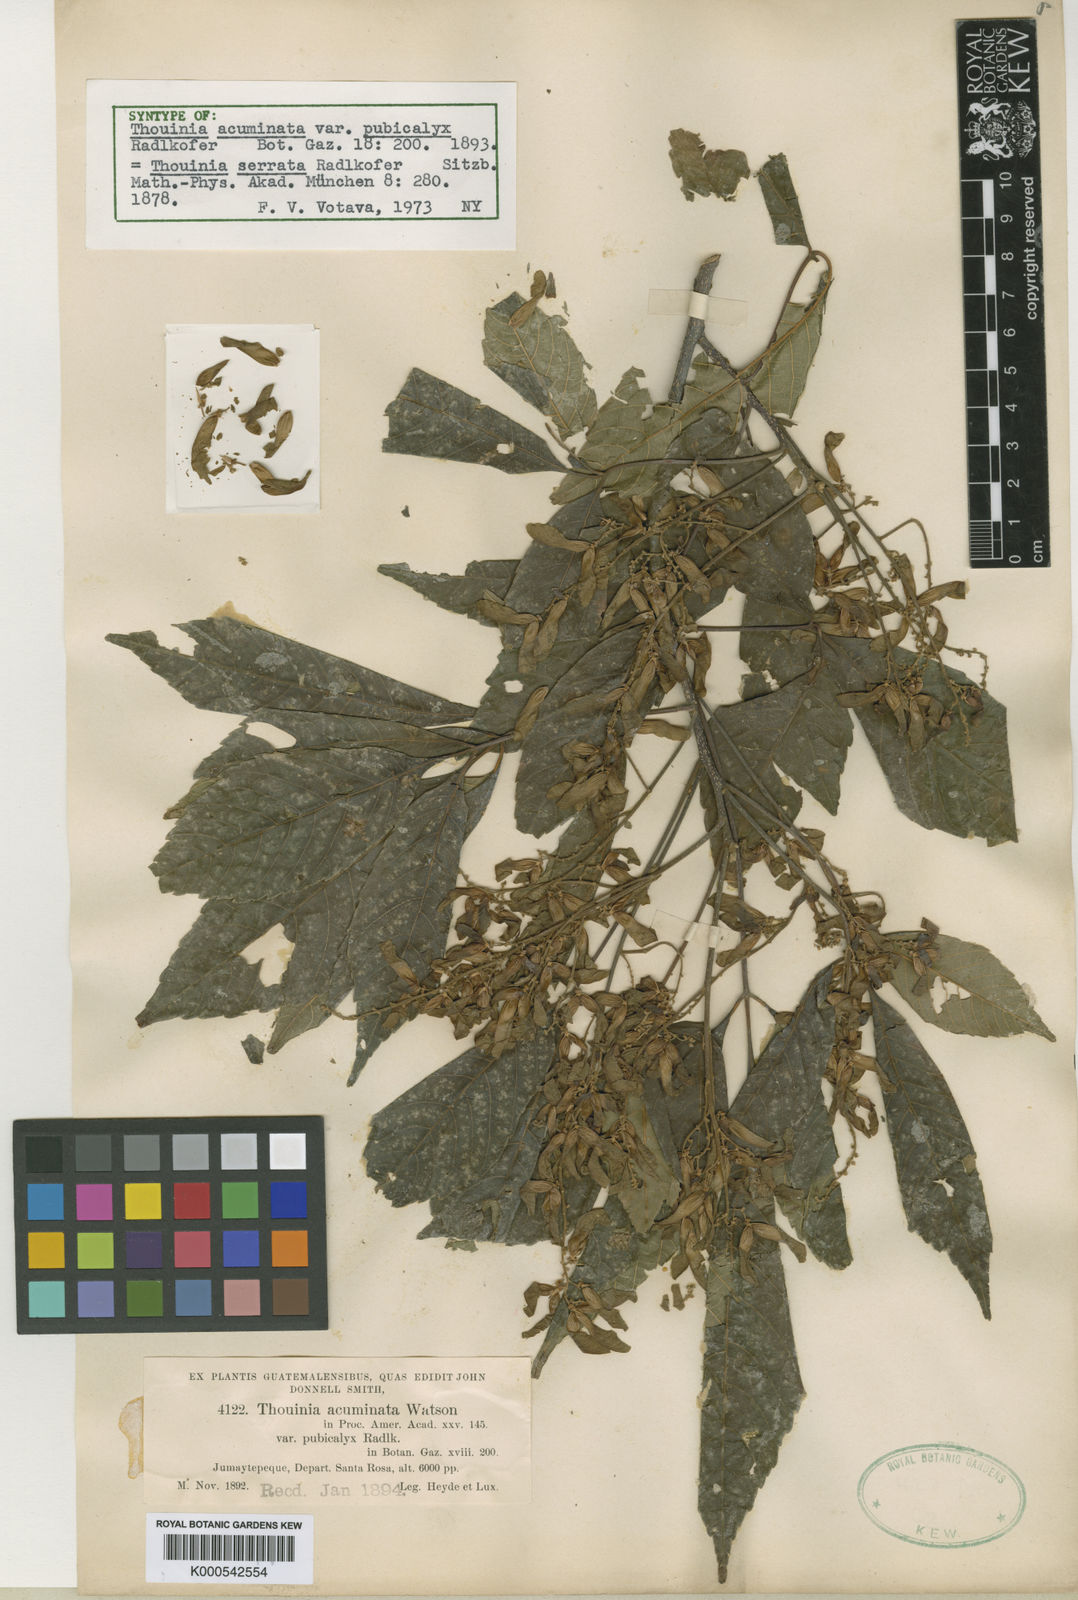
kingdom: Plantae
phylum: Tracheophyta
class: Magnoliopsida
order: Sapindales
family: Sapindaceae
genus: Thouinia
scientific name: Thouinia serrata
